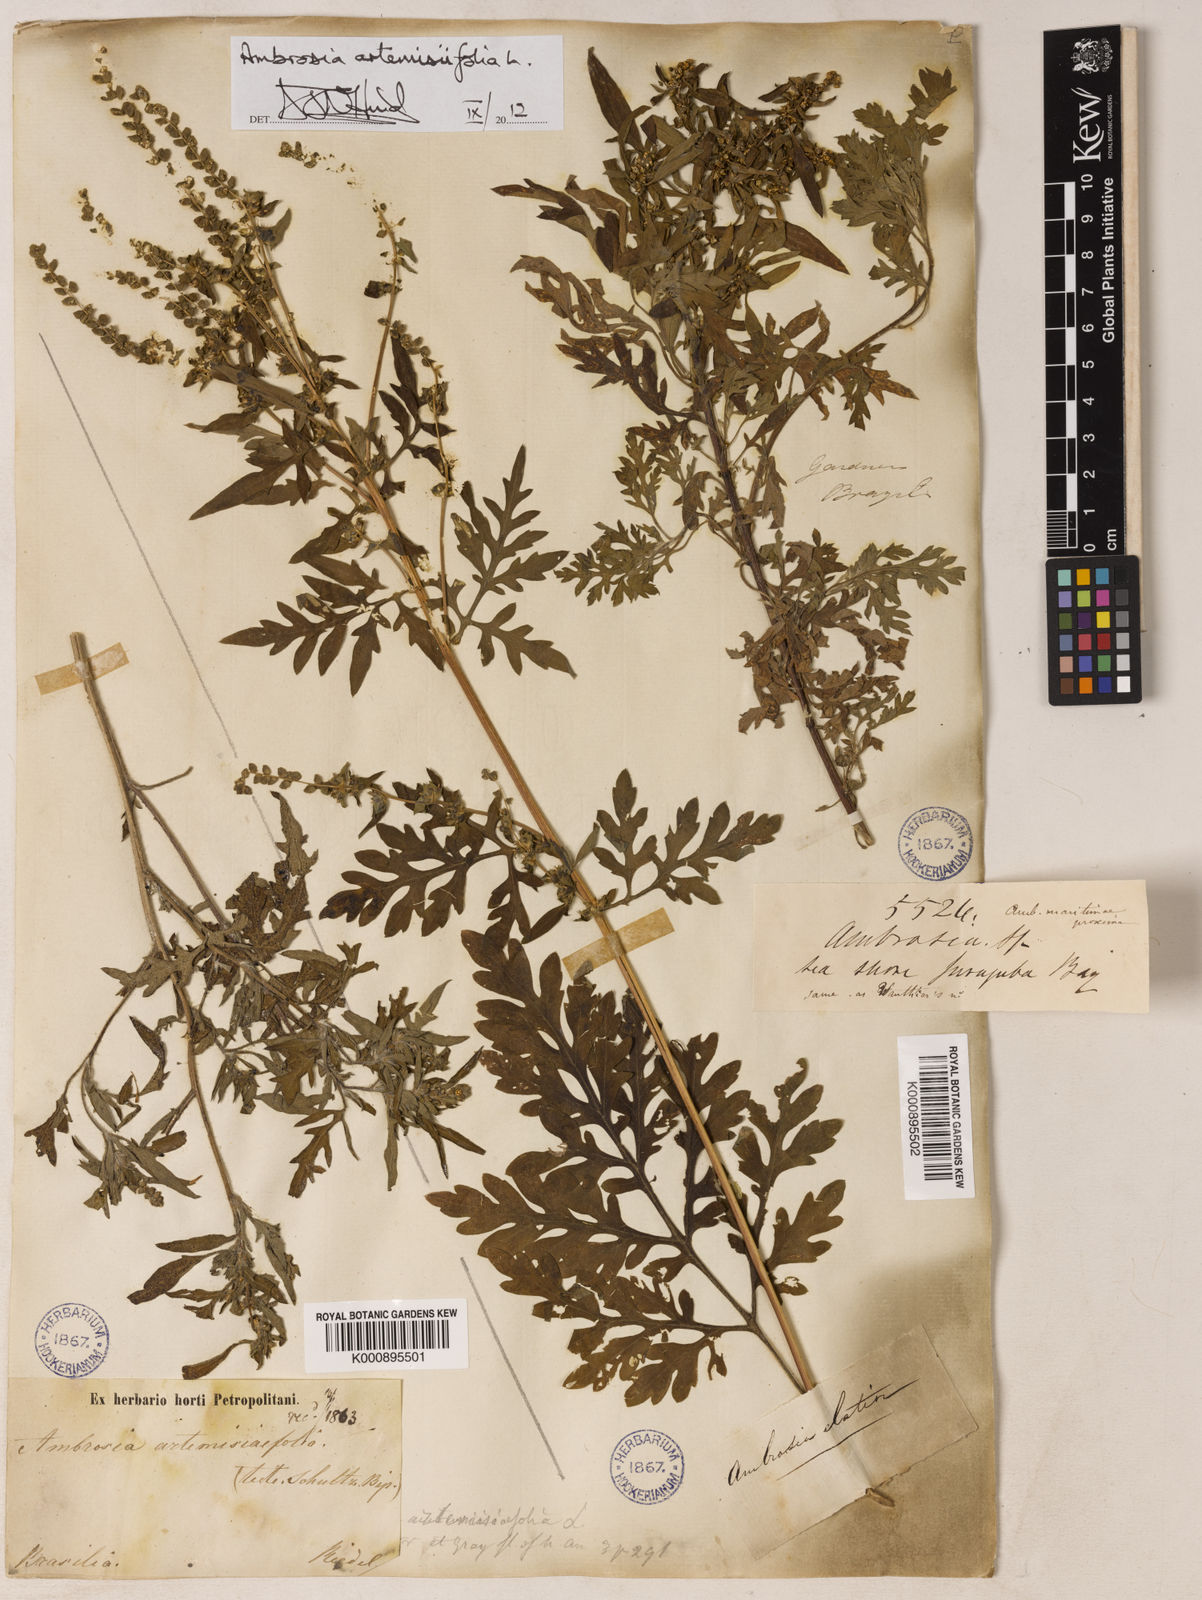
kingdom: Plantae
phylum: Tracheophyta
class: Magnoliopsida
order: Asterales
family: Asteraceae
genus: Ambrosia
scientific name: Ambrosia artemisiifolia
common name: Annual ragweed
